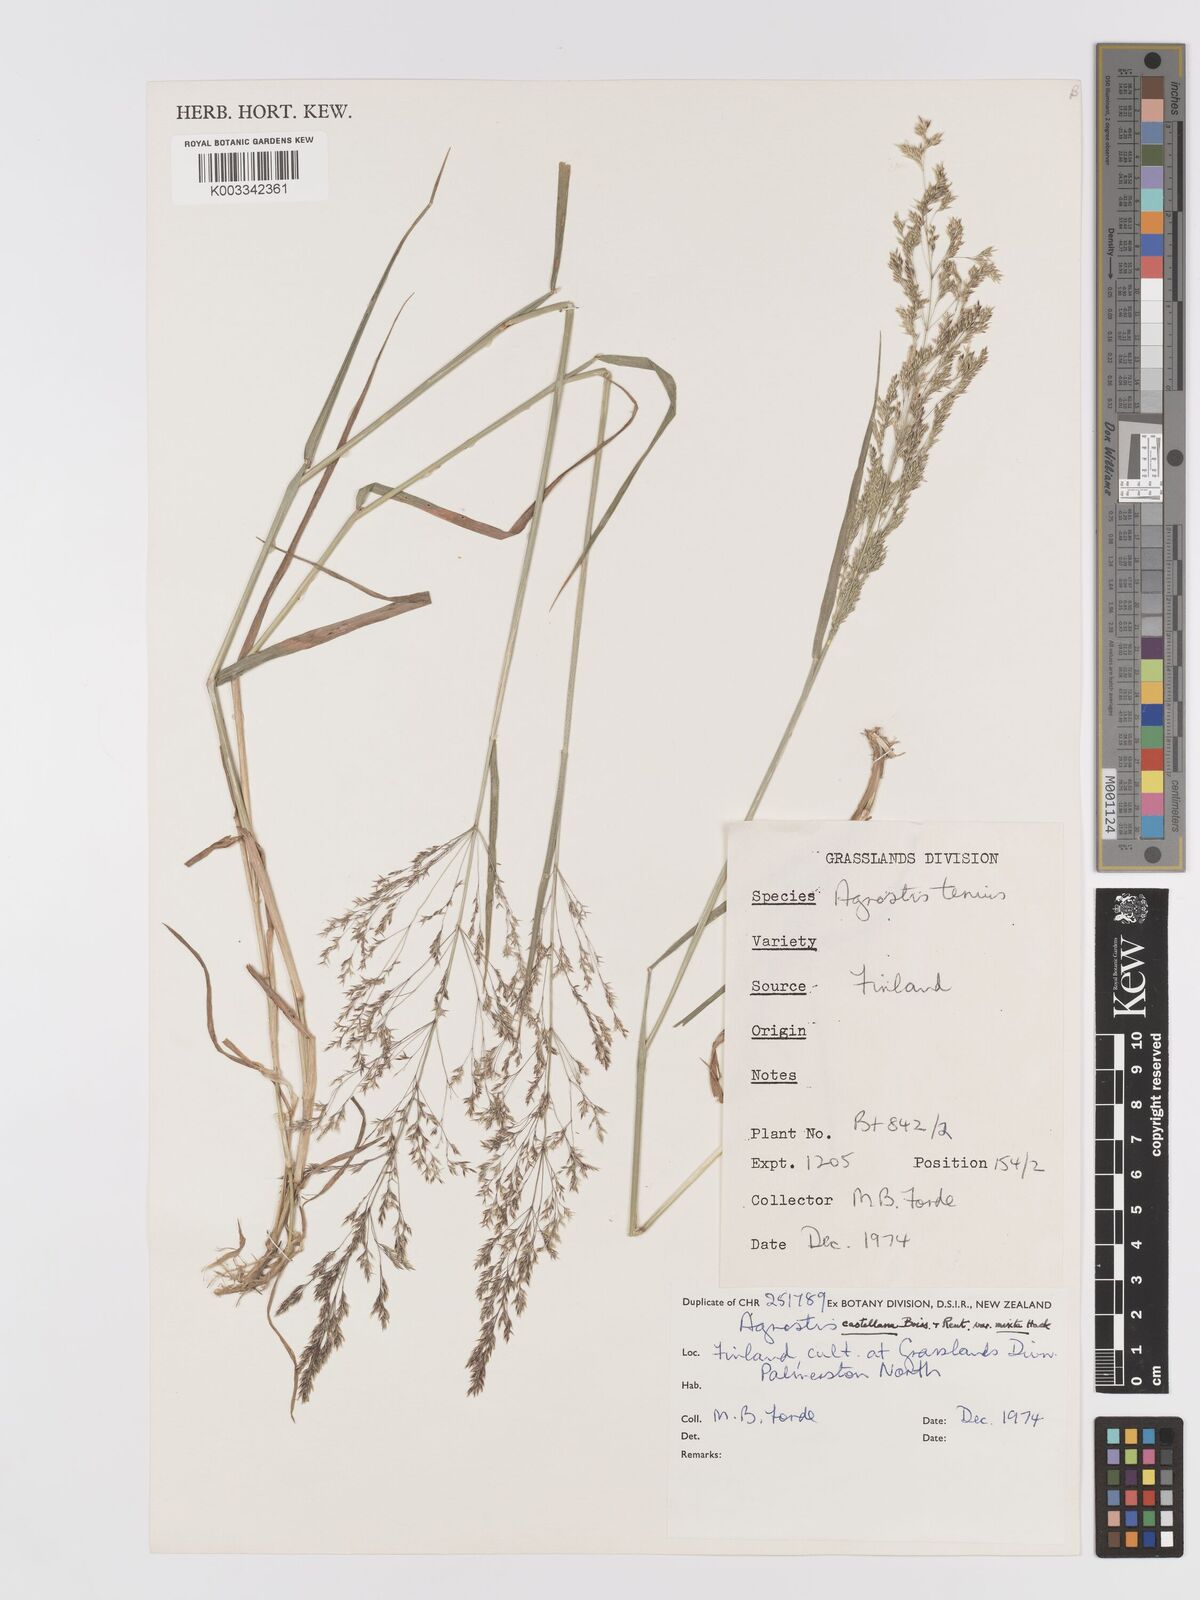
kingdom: Plantae
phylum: Tracheophyta
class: Liliopsida
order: Poales
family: Poaceae
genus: Agrostis
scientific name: Agrostis castellana
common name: Highland bent
